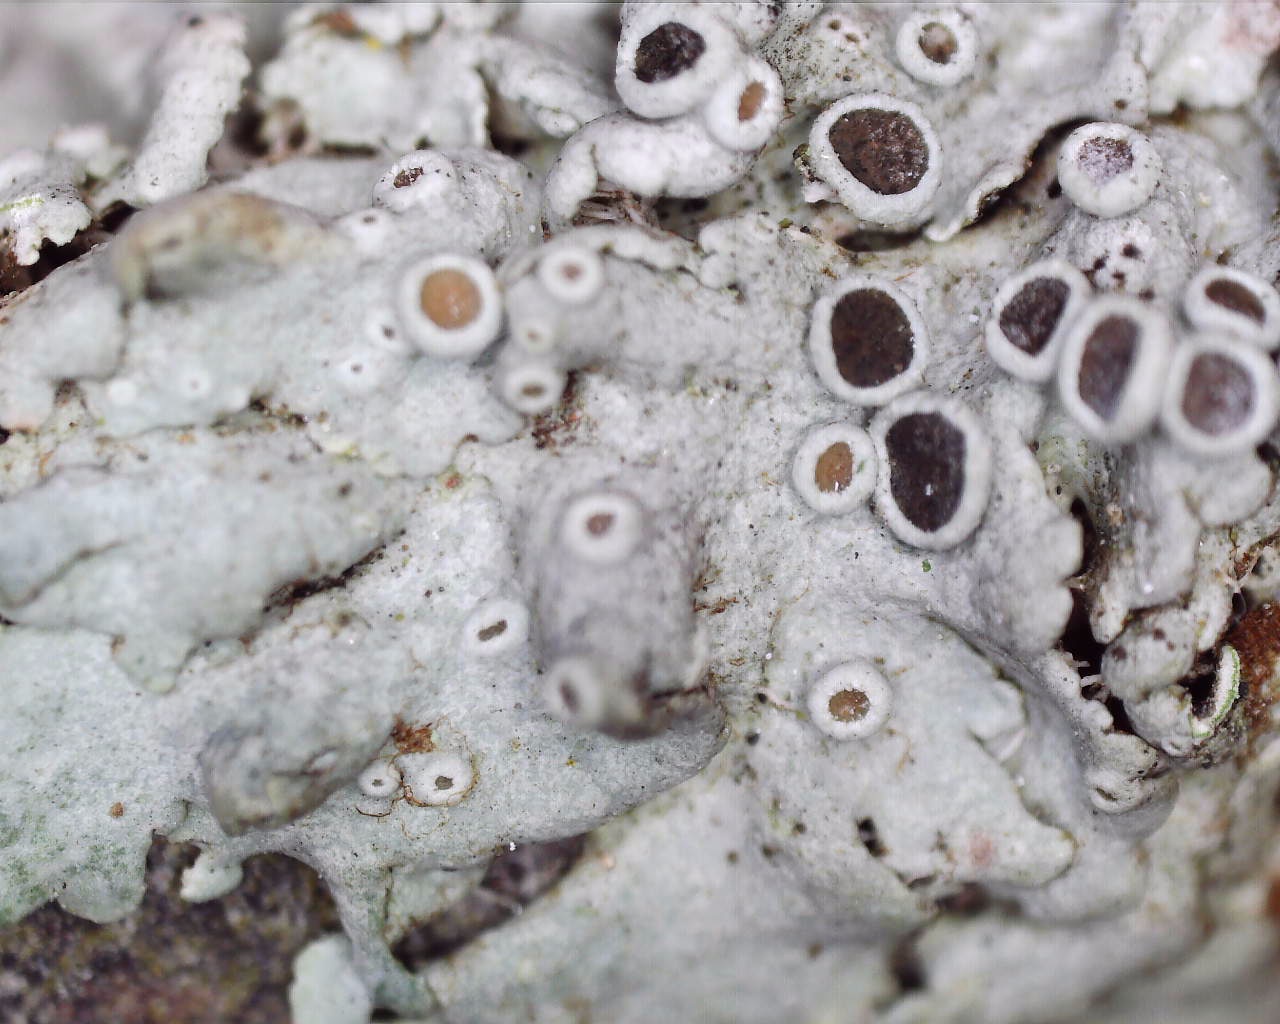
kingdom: Fungi
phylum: Ascomycota
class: Lecanoromycetes
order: Caliciales
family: Physciaceae
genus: Physcia
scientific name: Physcia stellaris
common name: stjerneformet rosetlav
